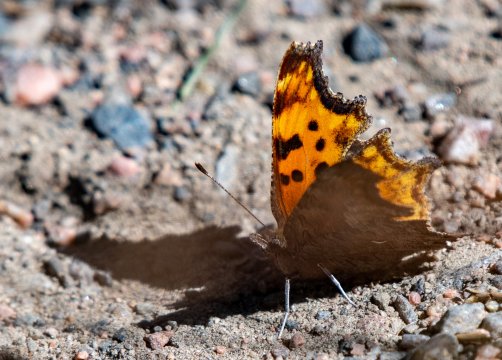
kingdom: Animalia
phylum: Arthropoda
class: Insecta
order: Lepidoptera
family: Nymphalidae
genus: Polygonia
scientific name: Polygonia satyrus
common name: Satyr Comma
